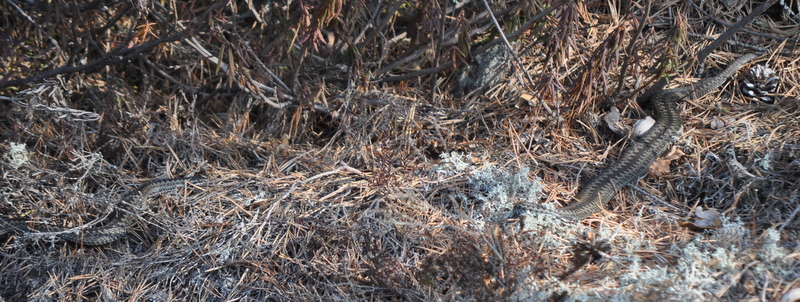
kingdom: Animalia
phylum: Chordata
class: Squamata
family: Viperidae
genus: Vipera
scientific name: Vipera berus
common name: Adder
